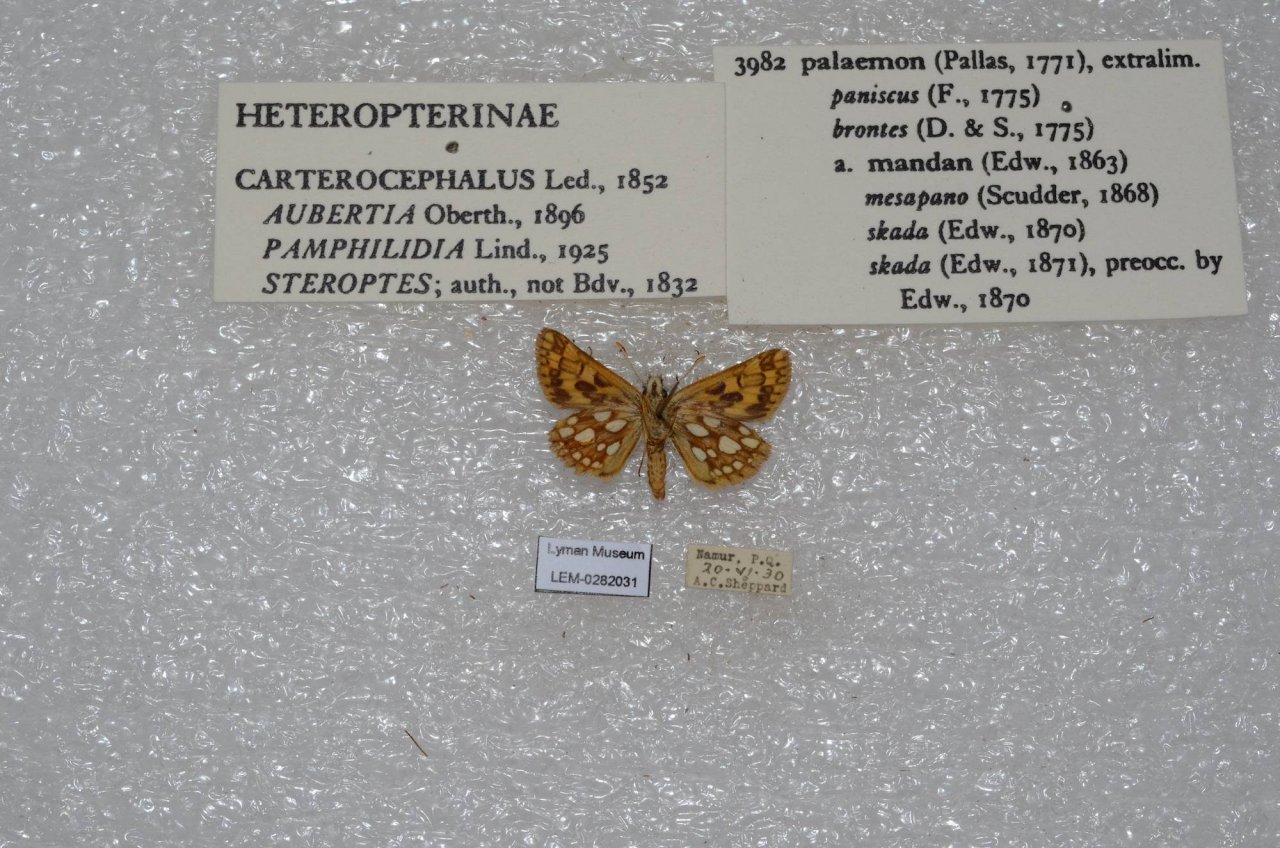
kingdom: Animalia
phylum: Arthropoda
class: Insecta
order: Lepidoptera
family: Hesperiidae
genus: Carterocephalus
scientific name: Carterocephalus palaemon
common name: Chequered Skipper
